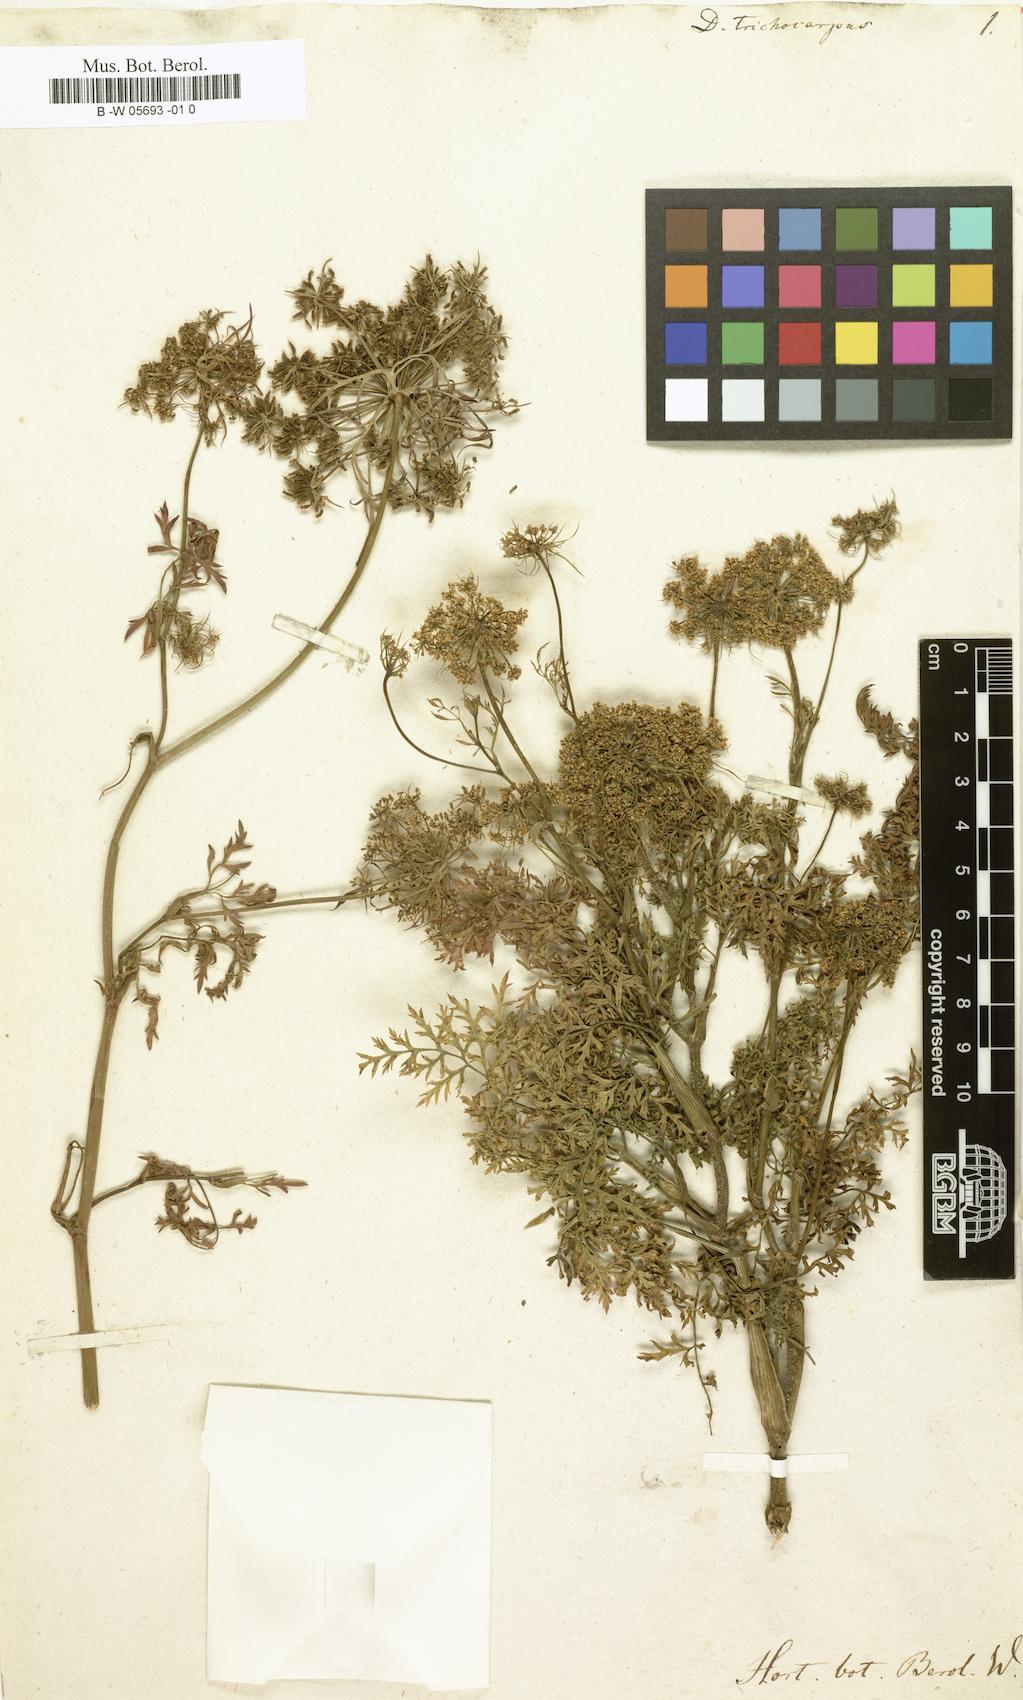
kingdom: Plantae
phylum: Tracheophyta
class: Magnoliopsida
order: Apiales
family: Apiaceae
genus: Daucus
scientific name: Daucus
